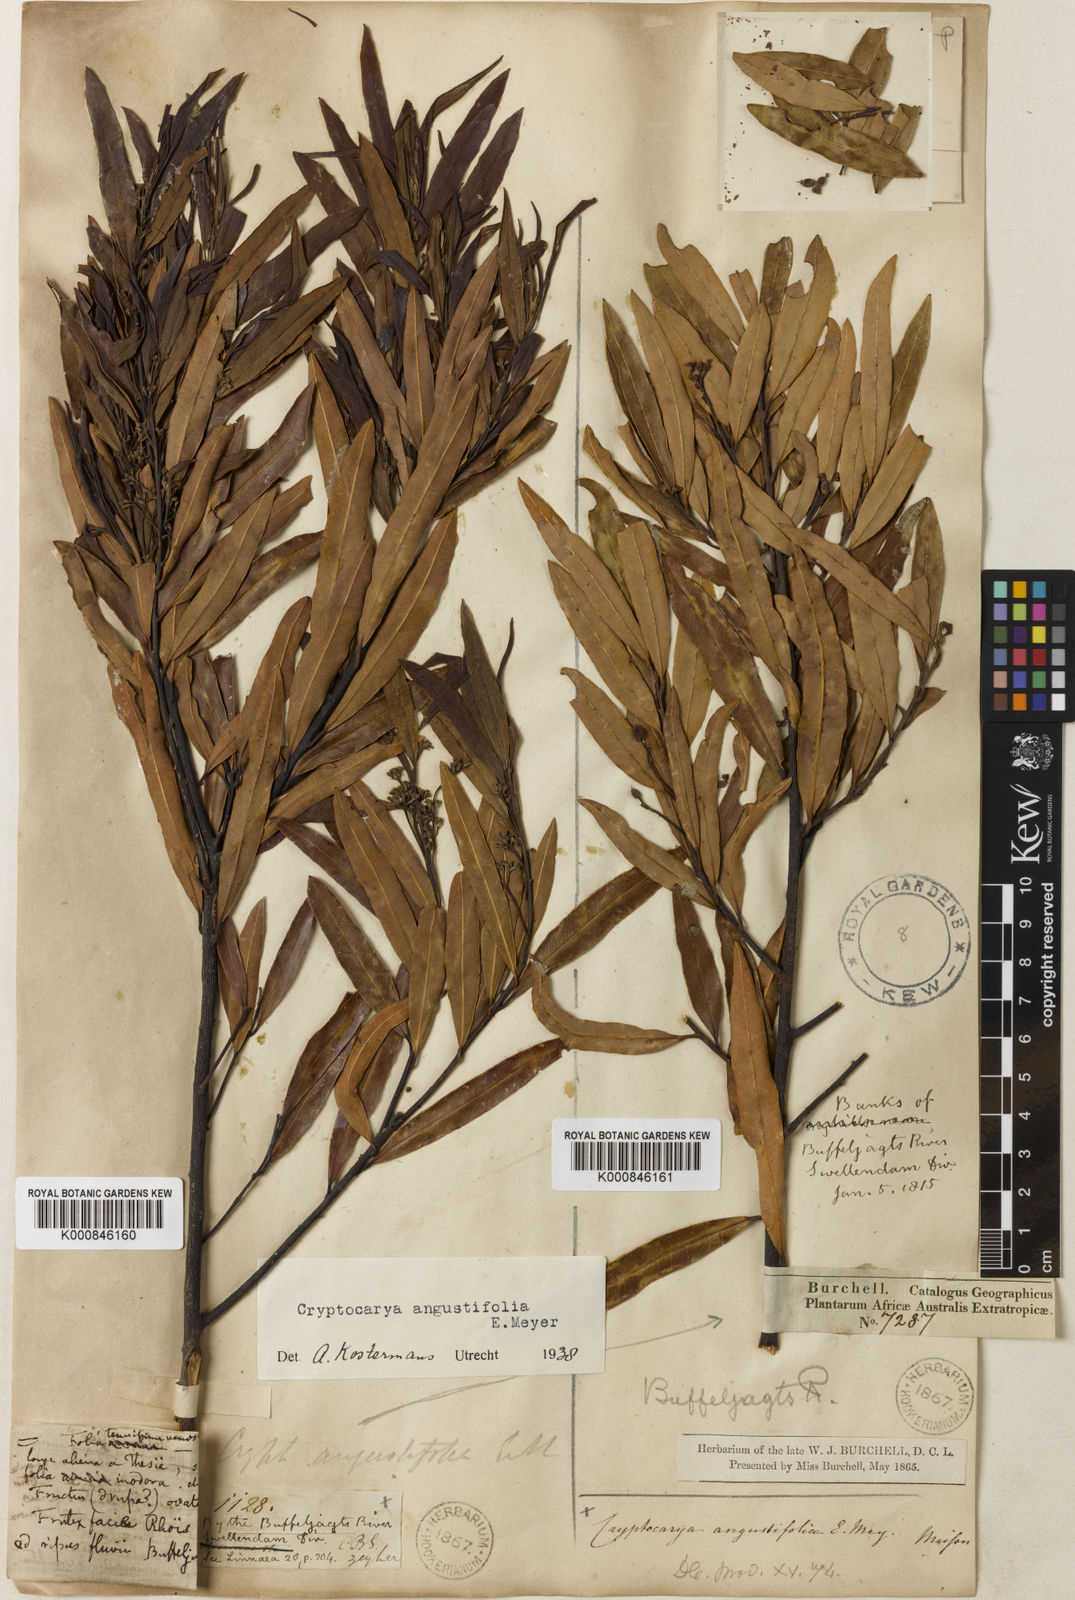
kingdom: Plantae
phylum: Tracheophyta
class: Magnoliopsida
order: Laurales
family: Lauraceae
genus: Cryptocarya
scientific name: Cryptocarya angustifolia
